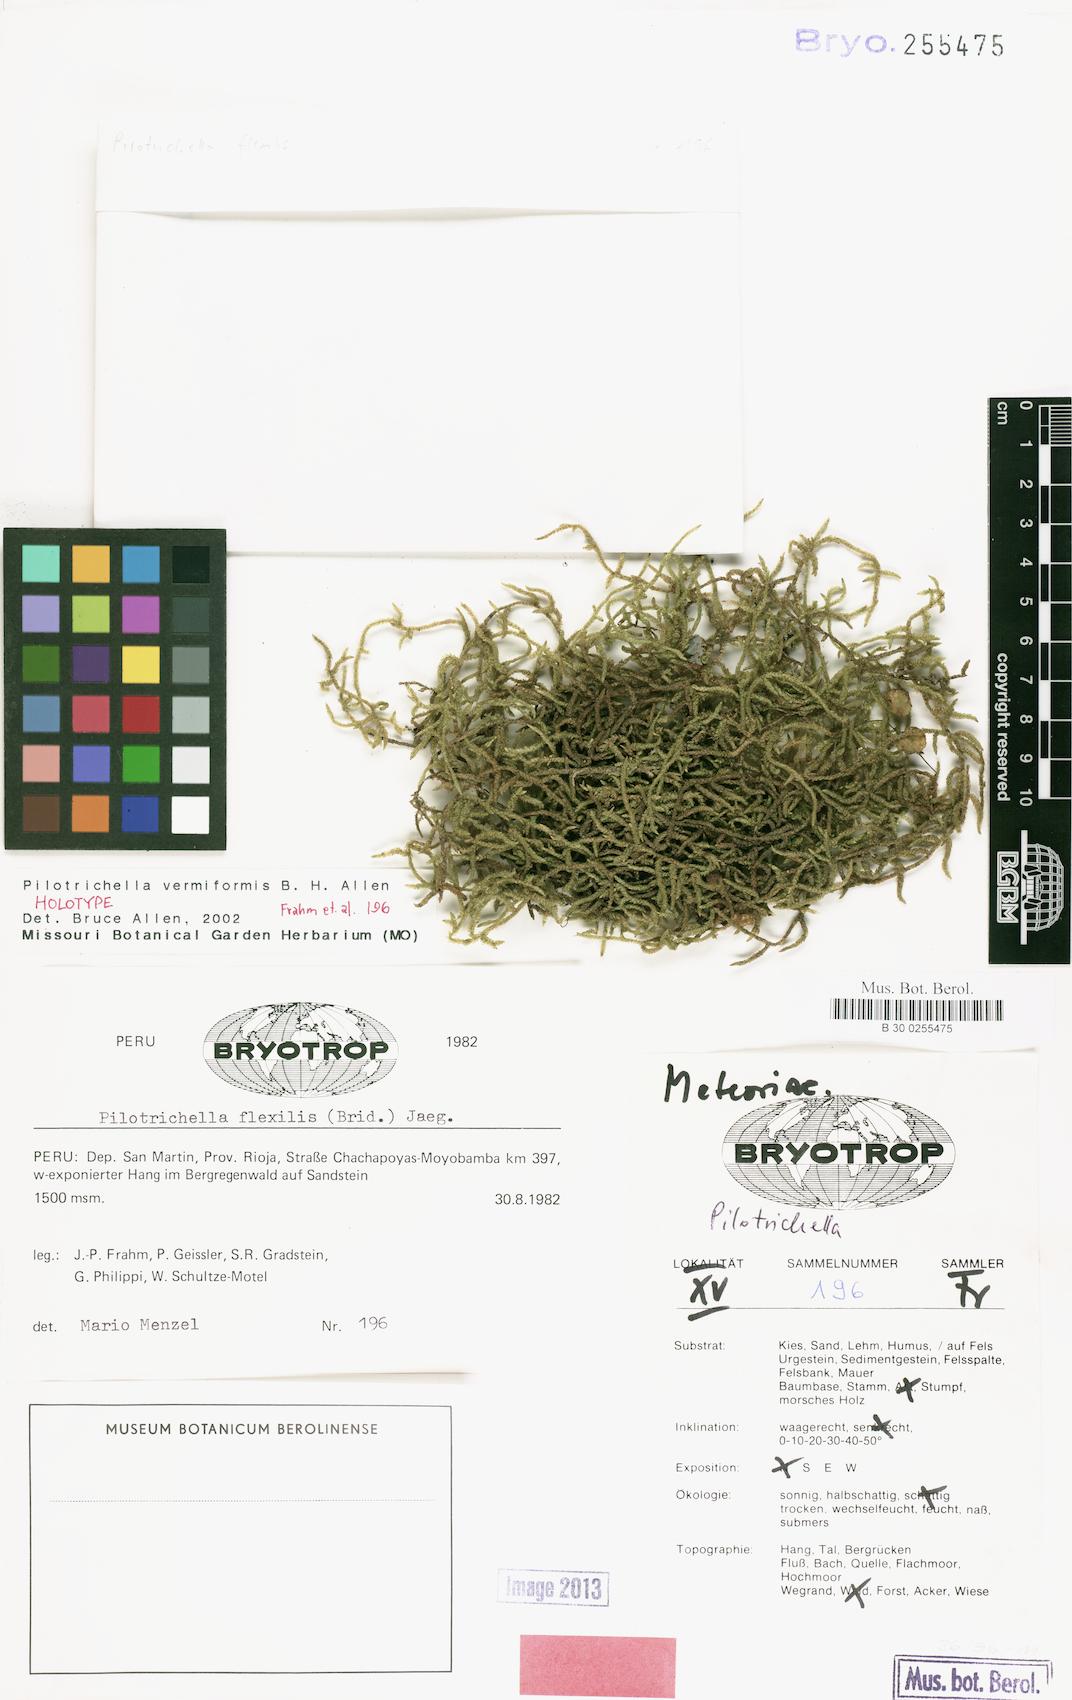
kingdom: Plantae
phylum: Bryophyta
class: Bryopsida
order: Hypnales
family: Lembophyllaceae
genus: Pilotrichella
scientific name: Pilotrichella vermiformis
